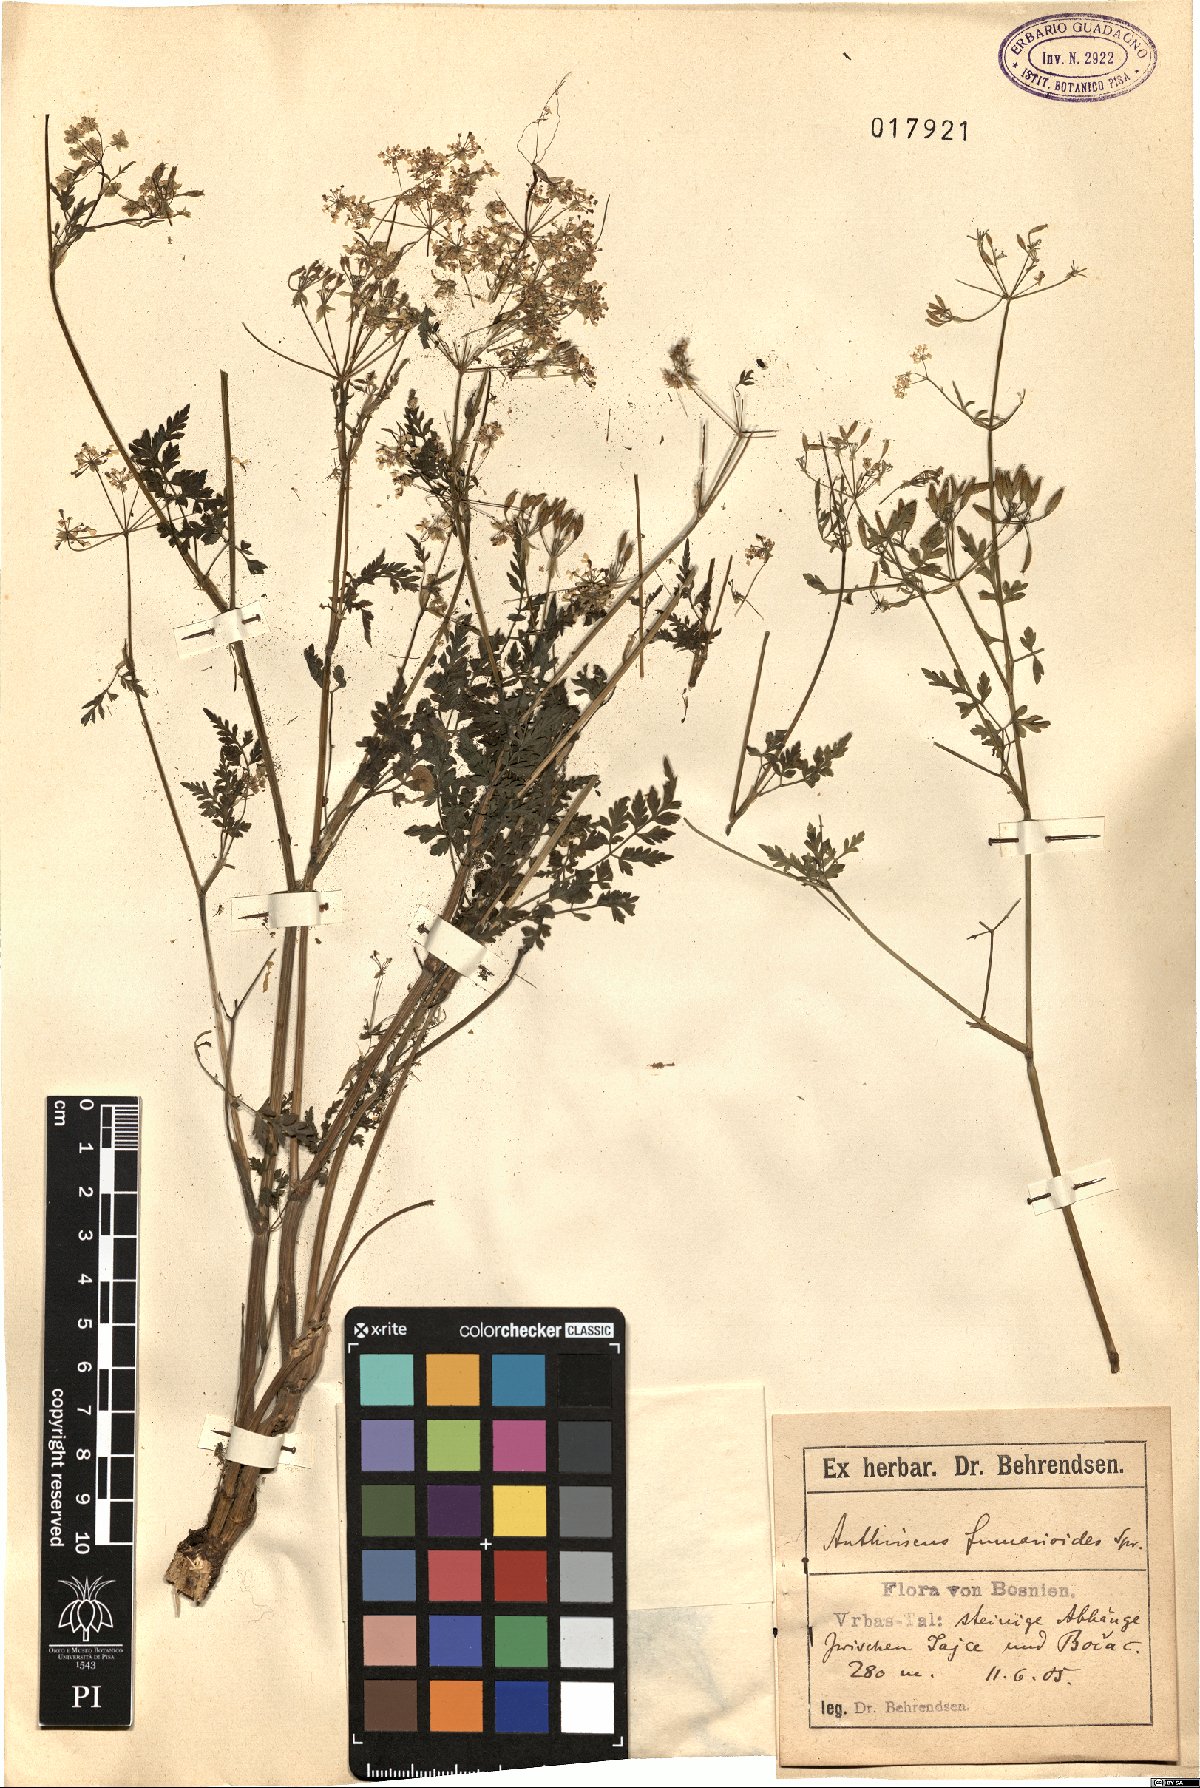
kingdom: Plantae
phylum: Tracheophyta
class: Magnoliopsida
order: Apiales
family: Apiaceae
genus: Anthriscus
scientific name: Anthriscus fumarioides
